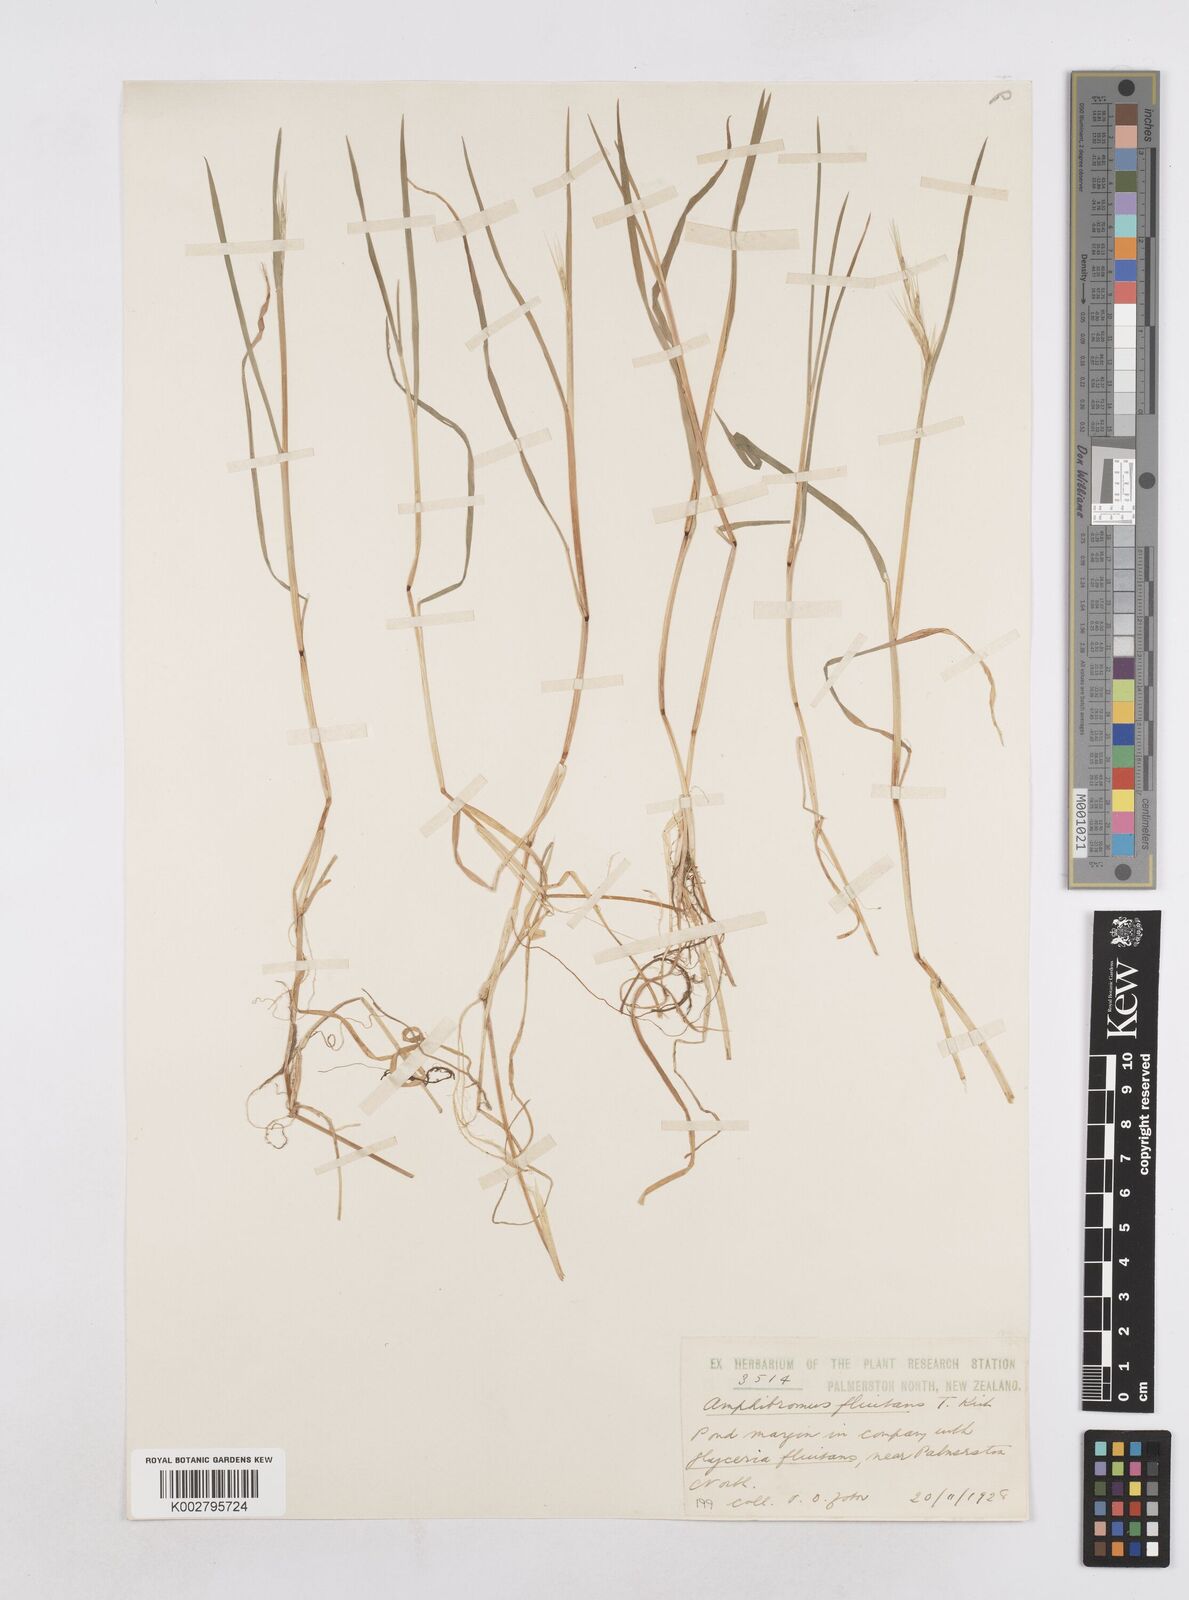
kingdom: Plantae
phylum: Tracheophyta
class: Liliopsida
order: Poales
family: Poaceae
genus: Helictotrichon
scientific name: Helictotrichon
